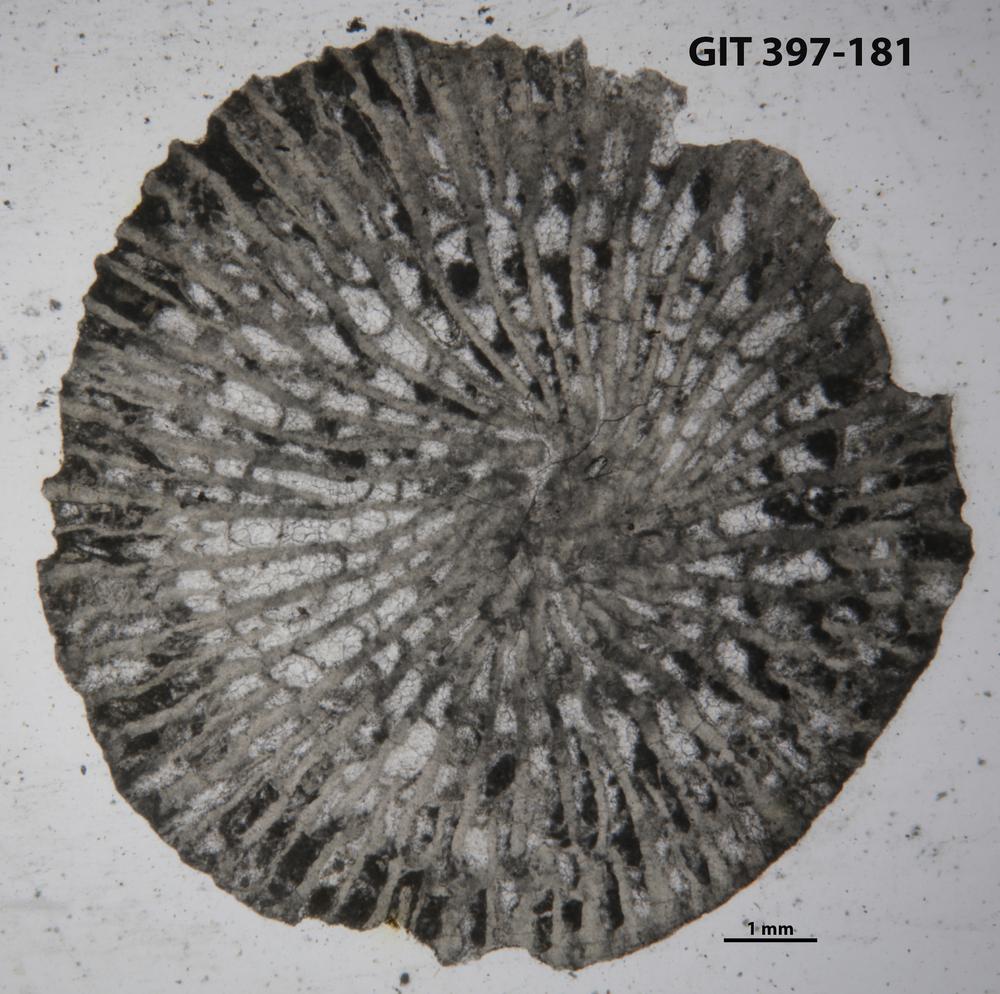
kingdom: Animalia
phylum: Cnidaria
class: Anthozoa
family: Paliphyllidae
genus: Paliphyllum
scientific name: Paliphyllum soshkinae
